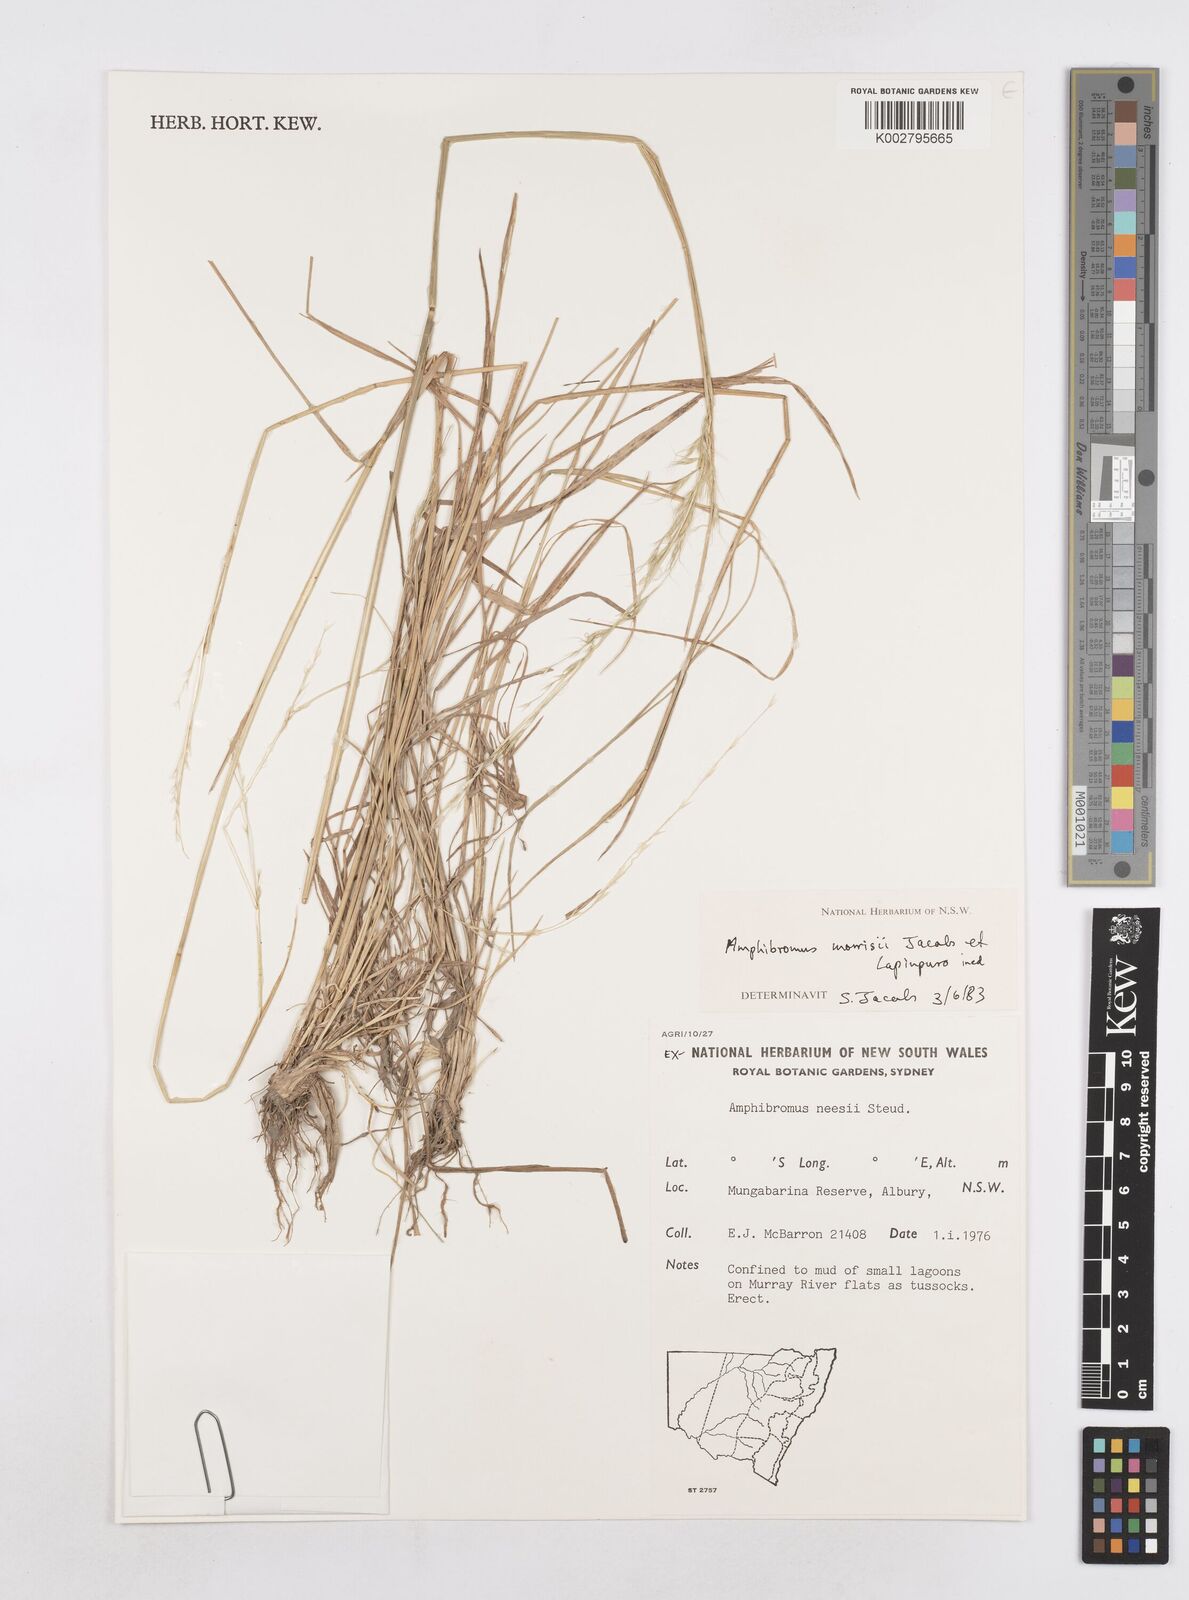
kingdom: Plantae
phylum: Tracheophyta
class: Liliopsida
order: Poales
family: Poaceae
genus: Amphibromus
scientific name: Amphibromus neesii
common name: Australian wallaby grass
